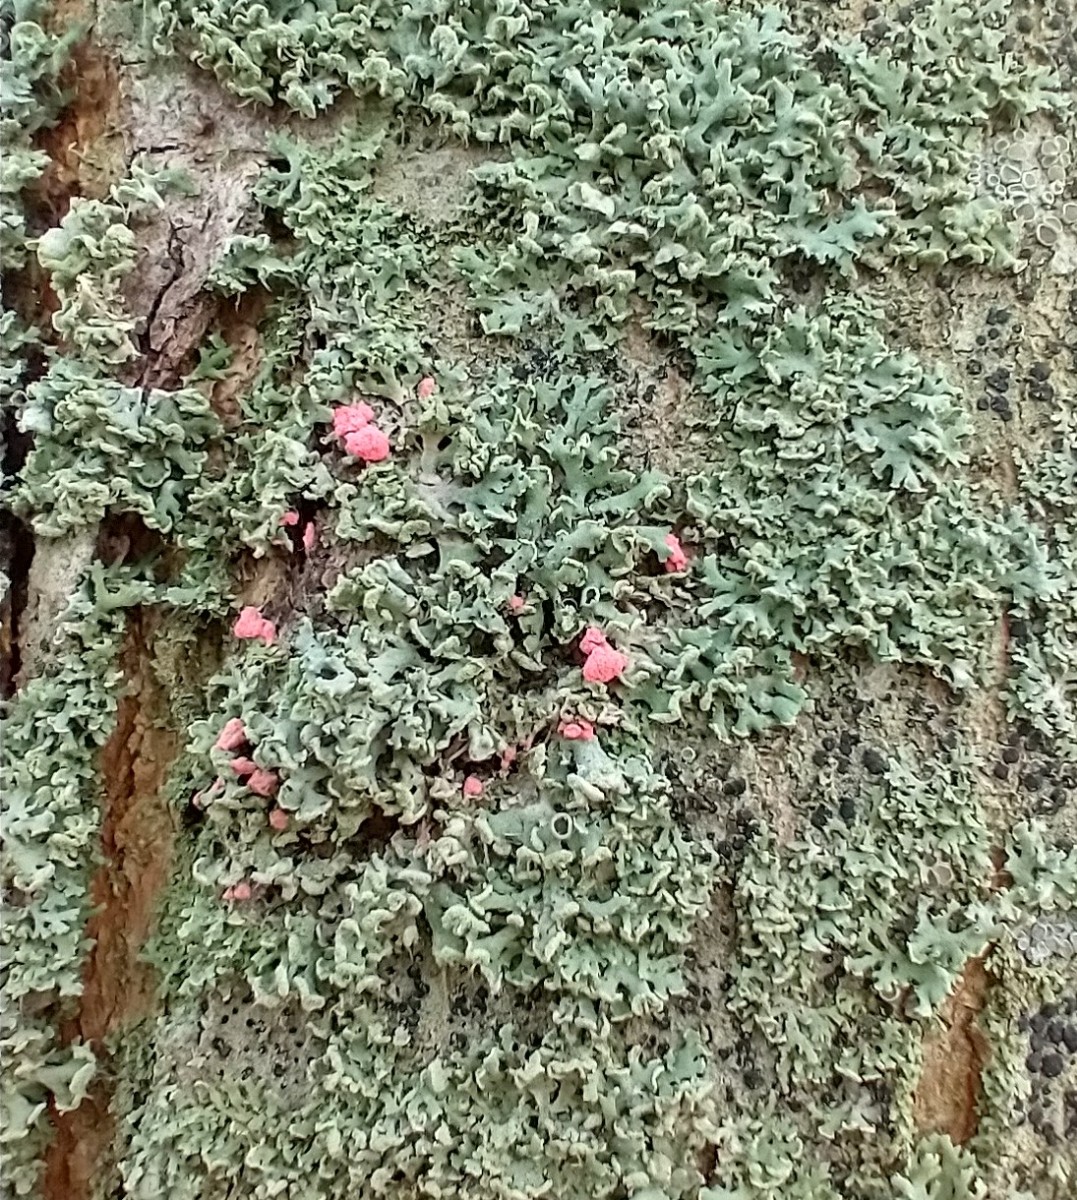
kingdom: Fungi
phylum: Ascomycota
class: Sordariomycetes
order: Hypocreales
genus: Illosporiopsis
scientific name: Illosporiopsis christiansenii
